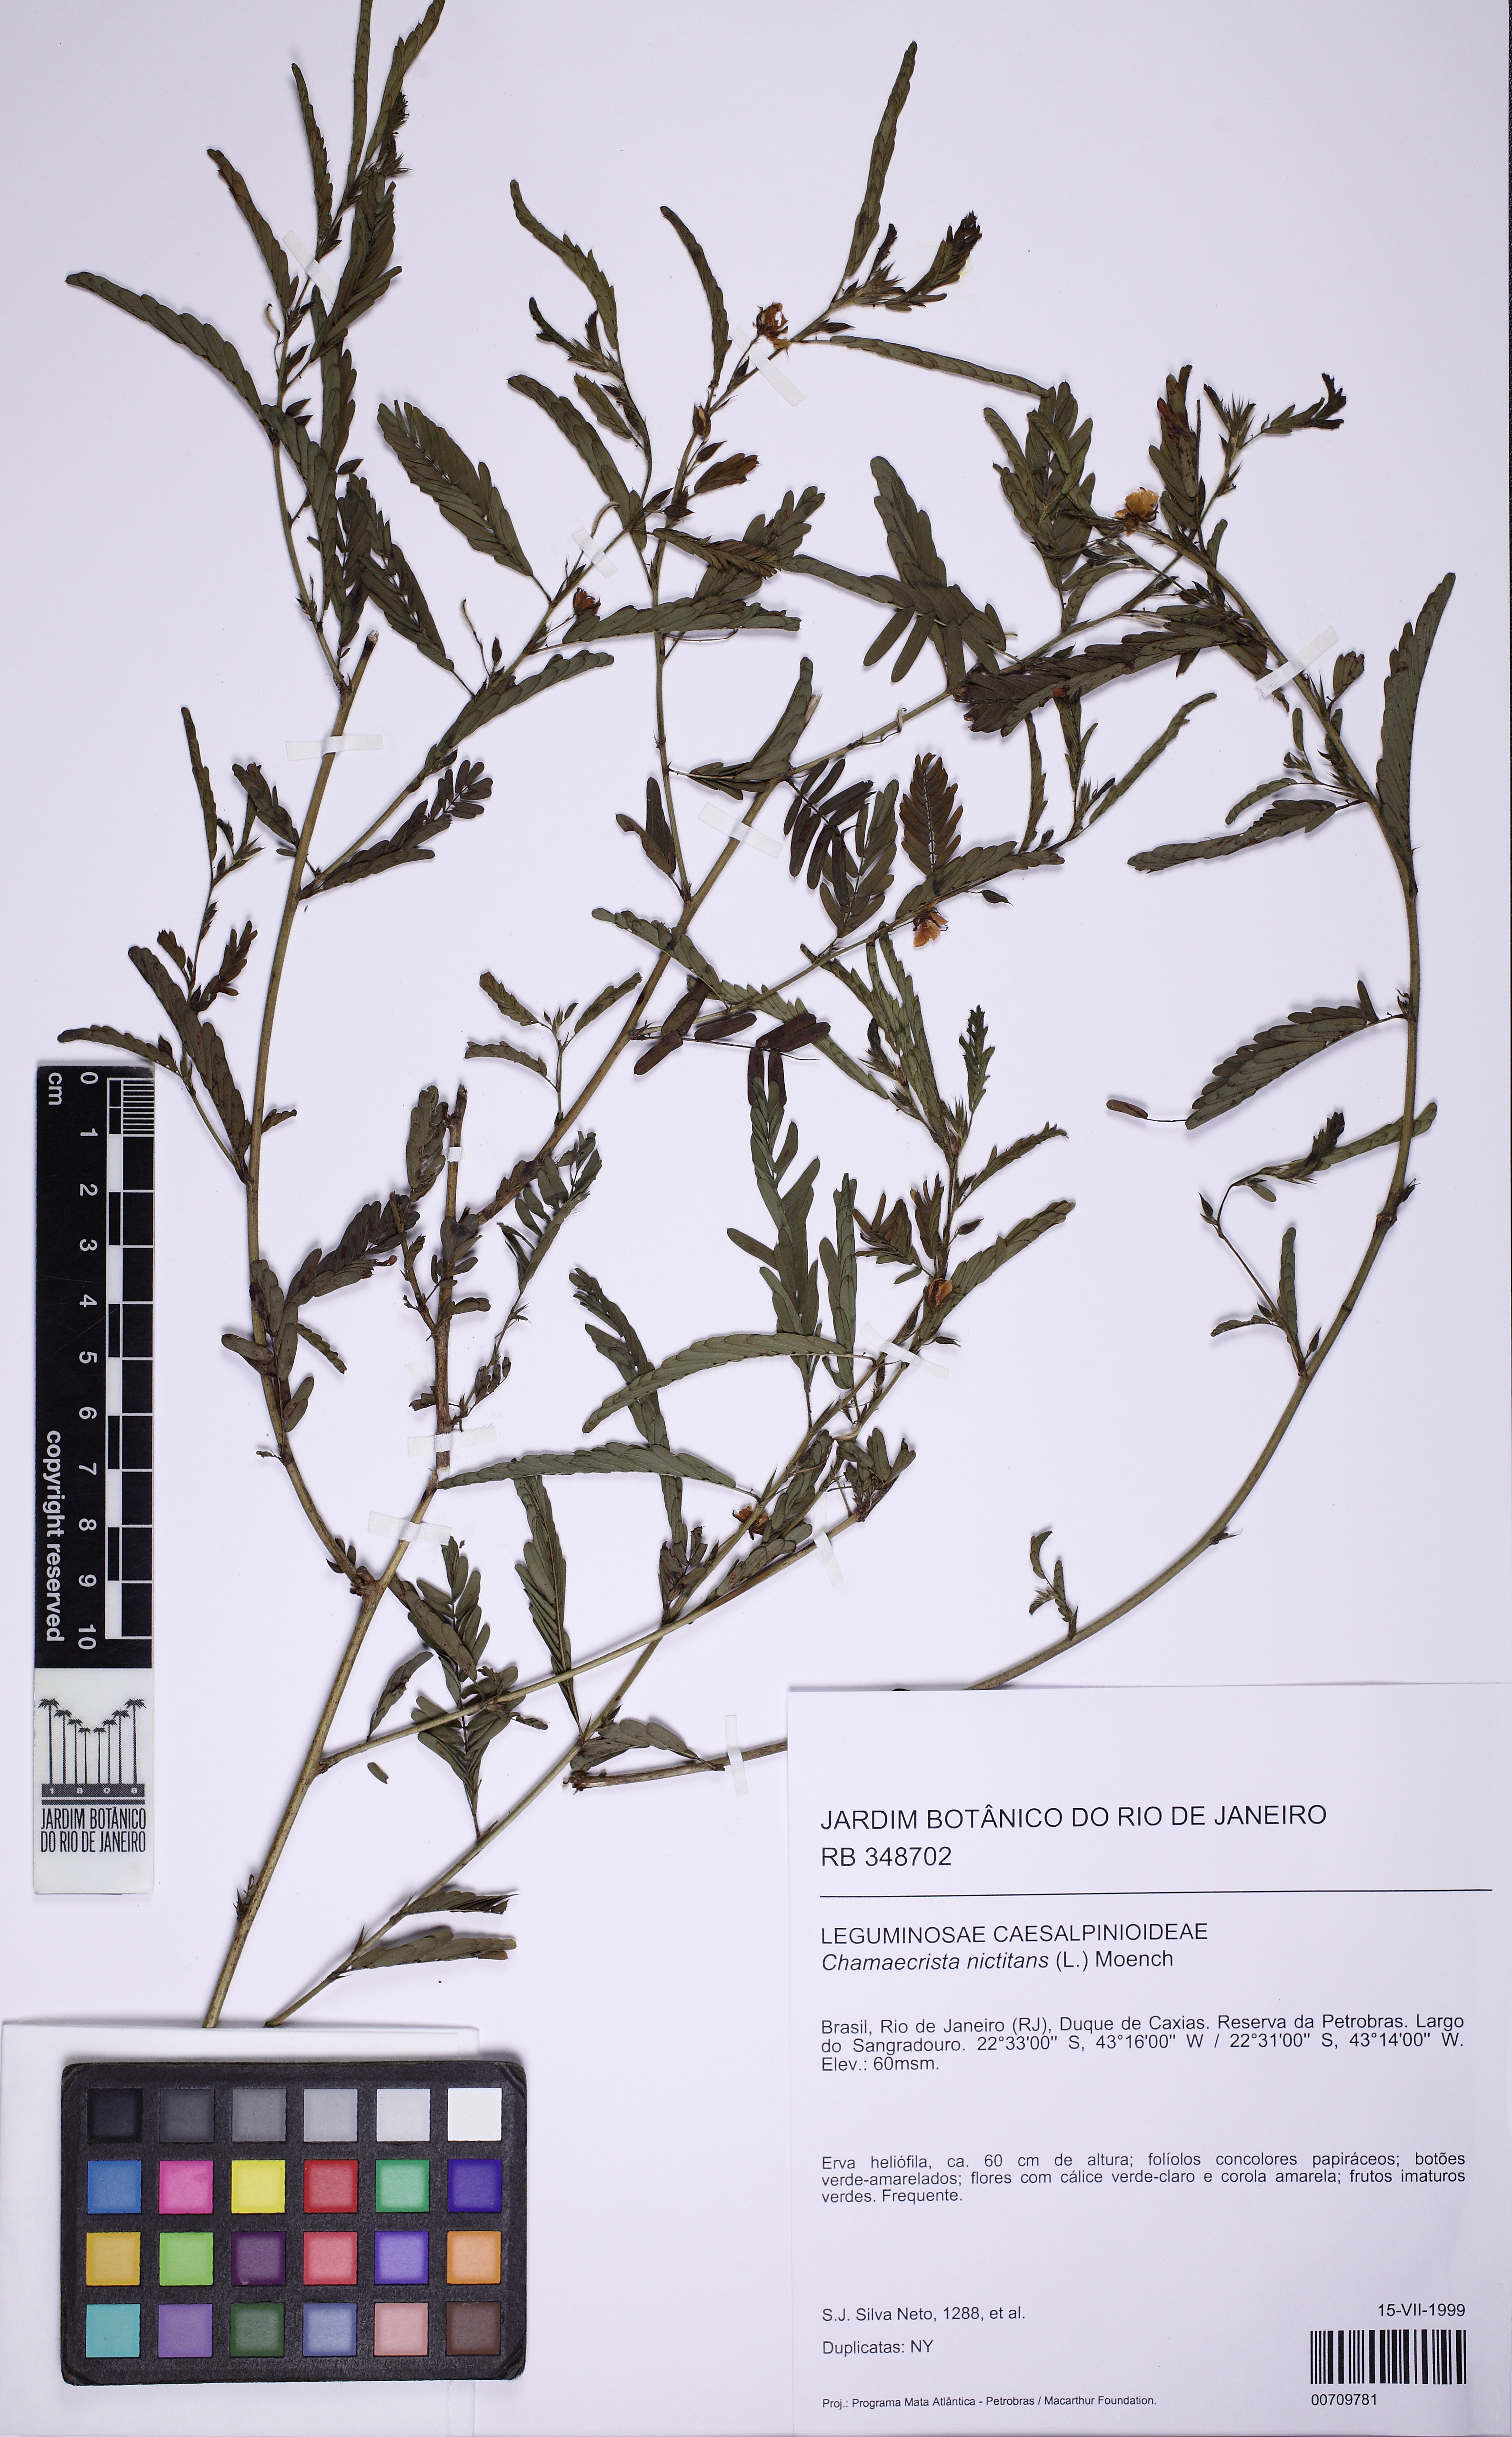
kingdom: Plantae
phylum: Tracheophyta
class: Magnoliopsida
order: Fabales
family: Fabaceae
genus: Chamaecrista
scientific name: Chamaecrista nictitans
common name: Sensitive cassia
